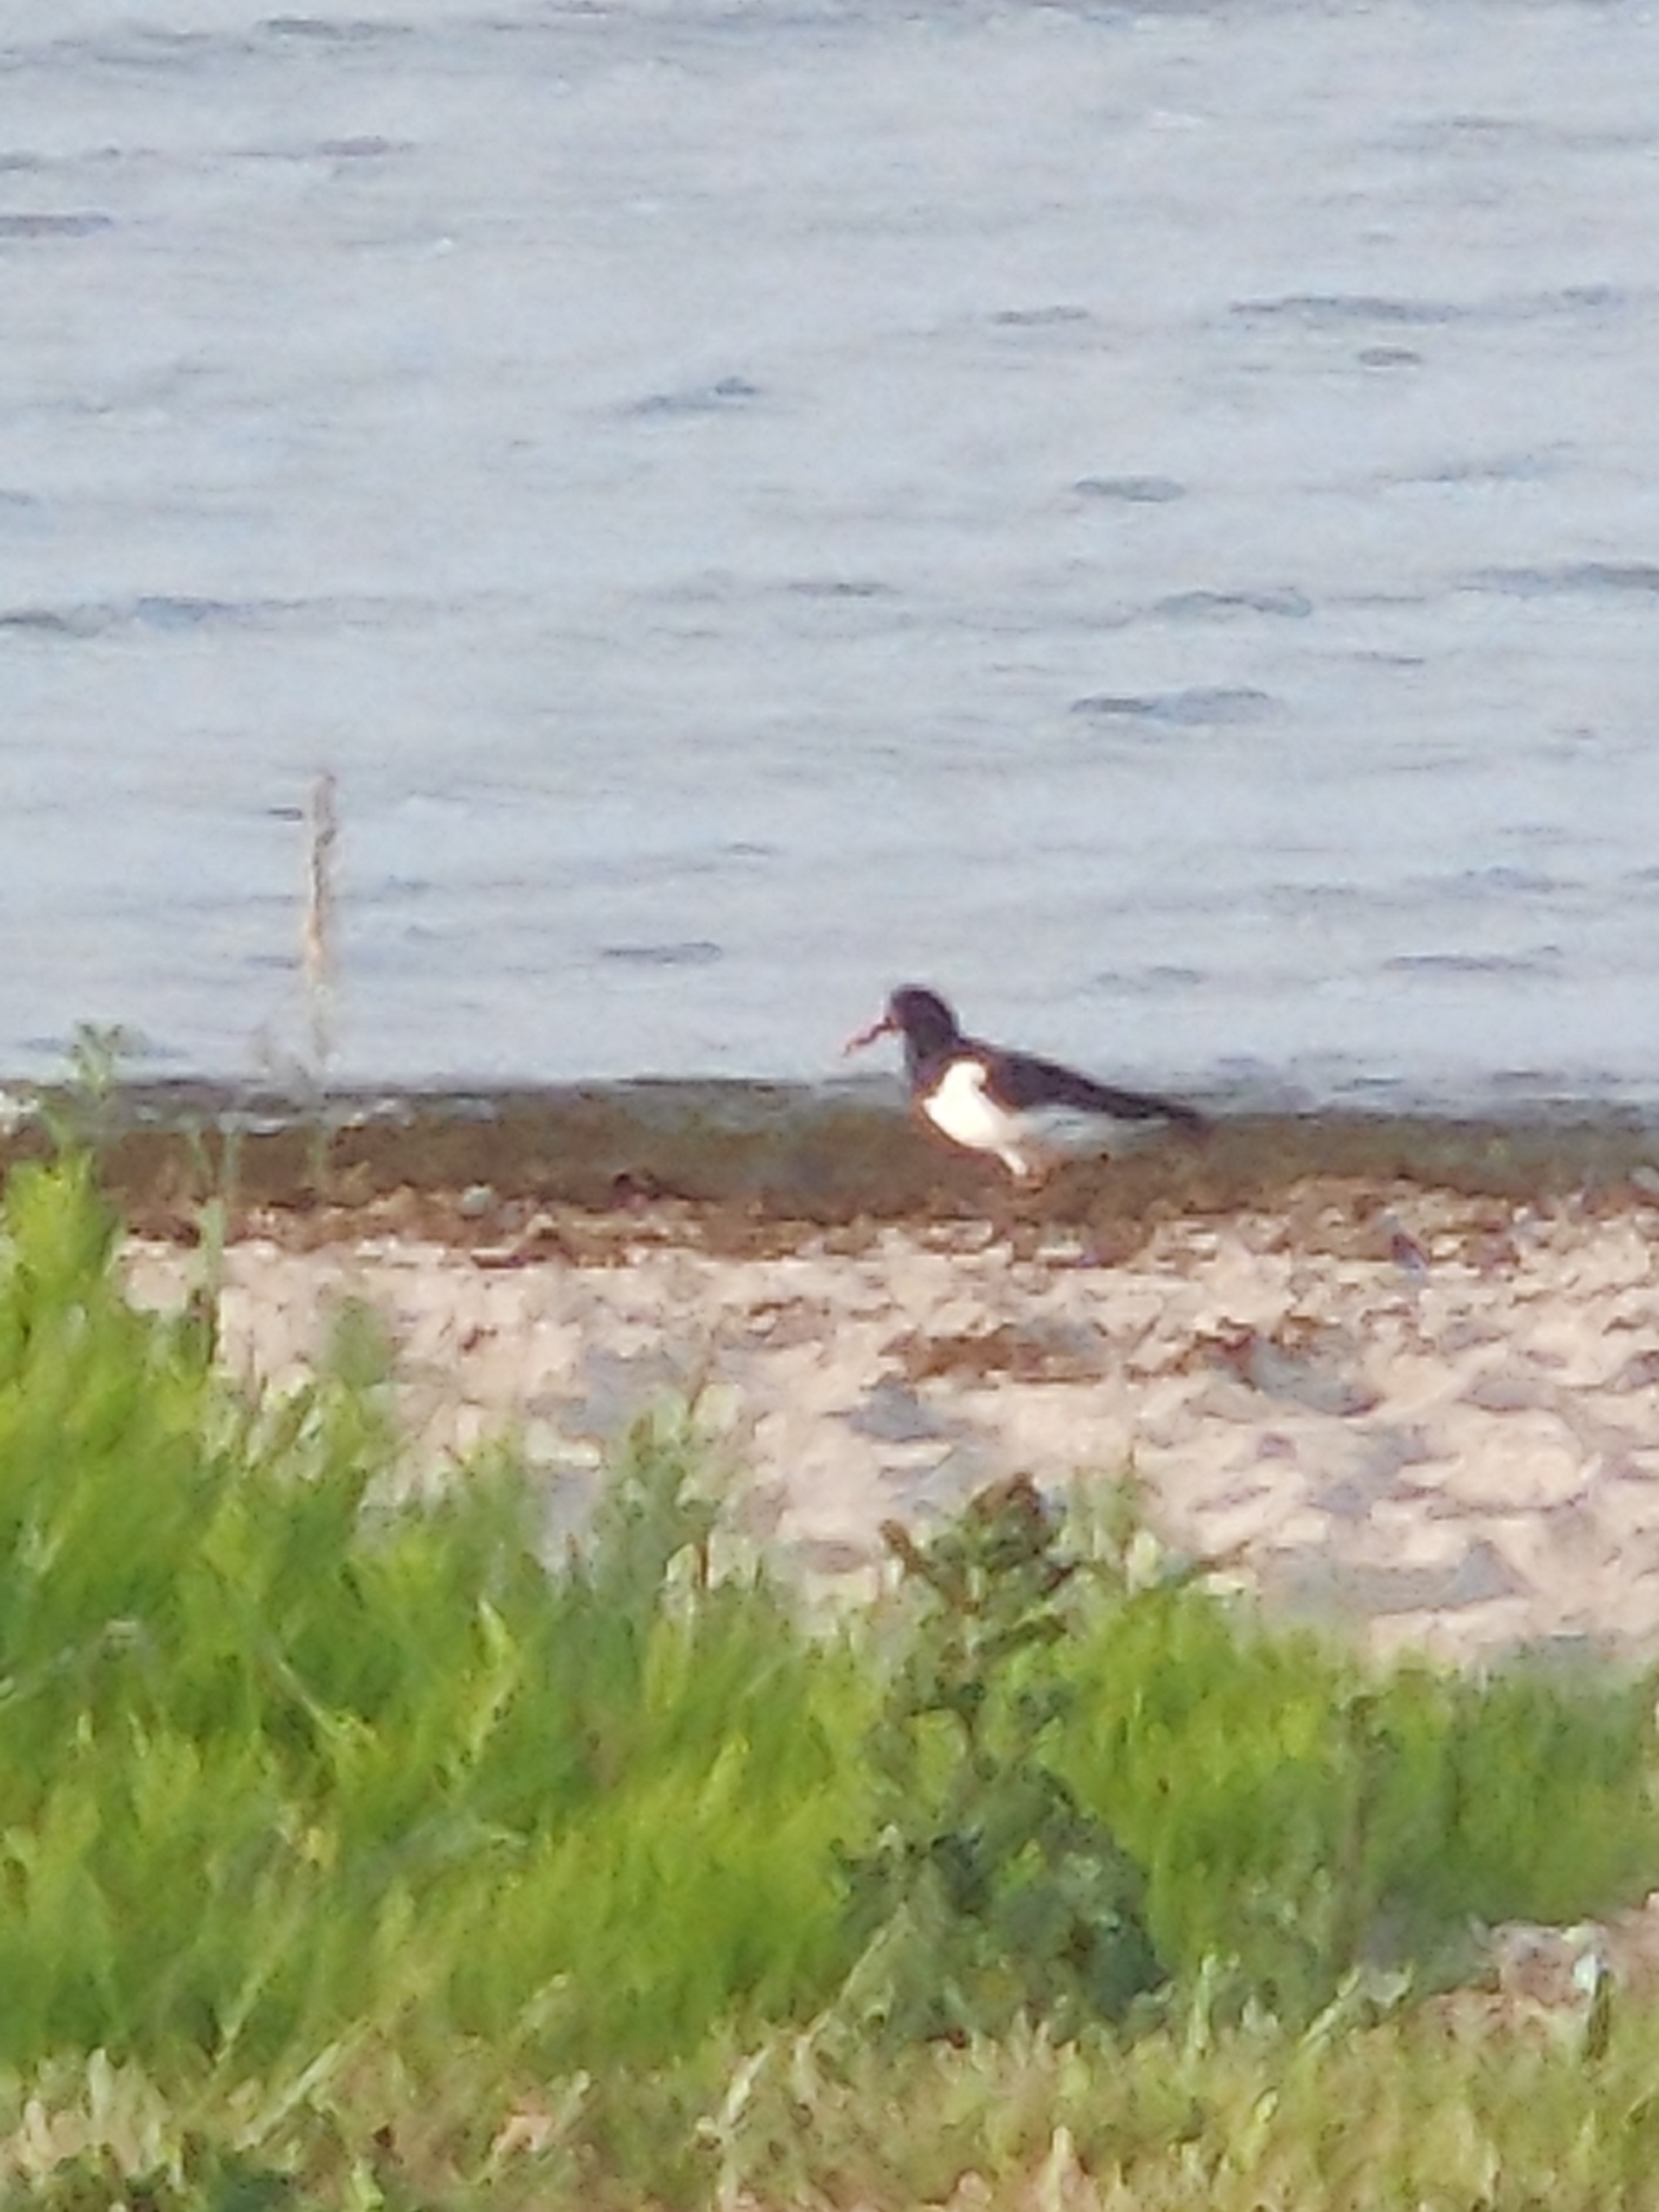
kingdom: Animalia
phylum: Chordata
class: Aves
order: Charadriiformes
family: Haematopodidae
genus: Haematopus
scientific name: Haematopus ostralegus
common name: Strandskade
